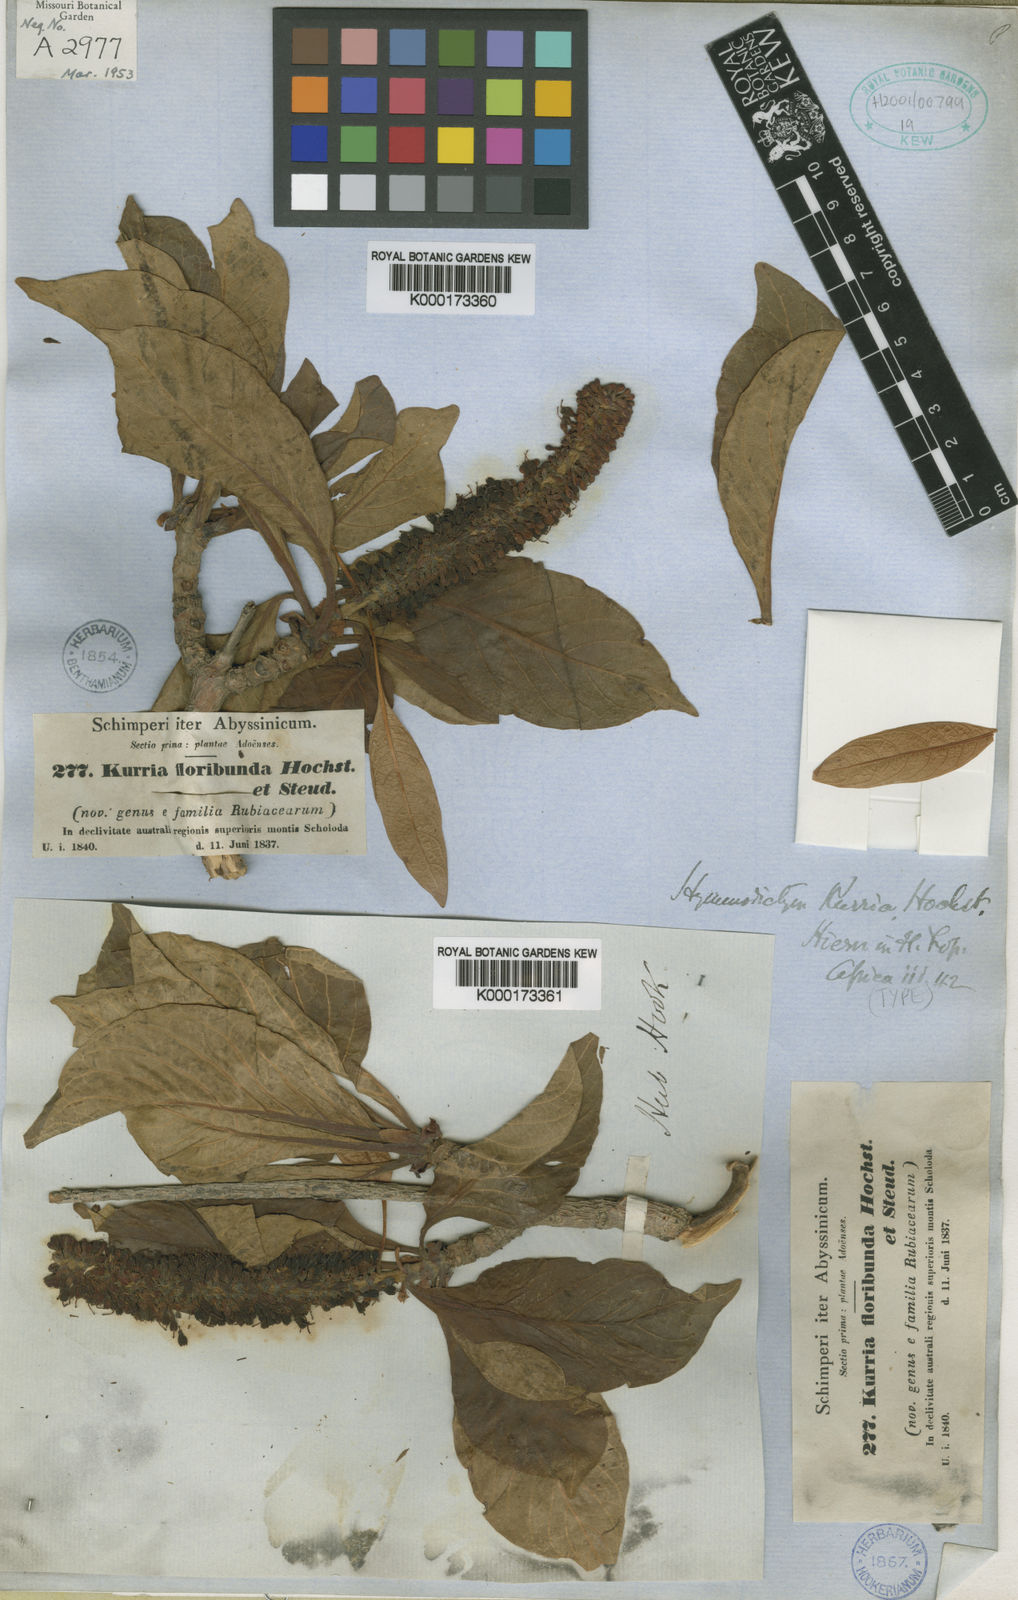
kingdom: Plantae
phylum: Tracheophyta
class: Magnoliopsida
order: Gentianales
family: Rubiaceae
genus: Hymenodictyon
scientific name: Hymenodictyon floribundum
